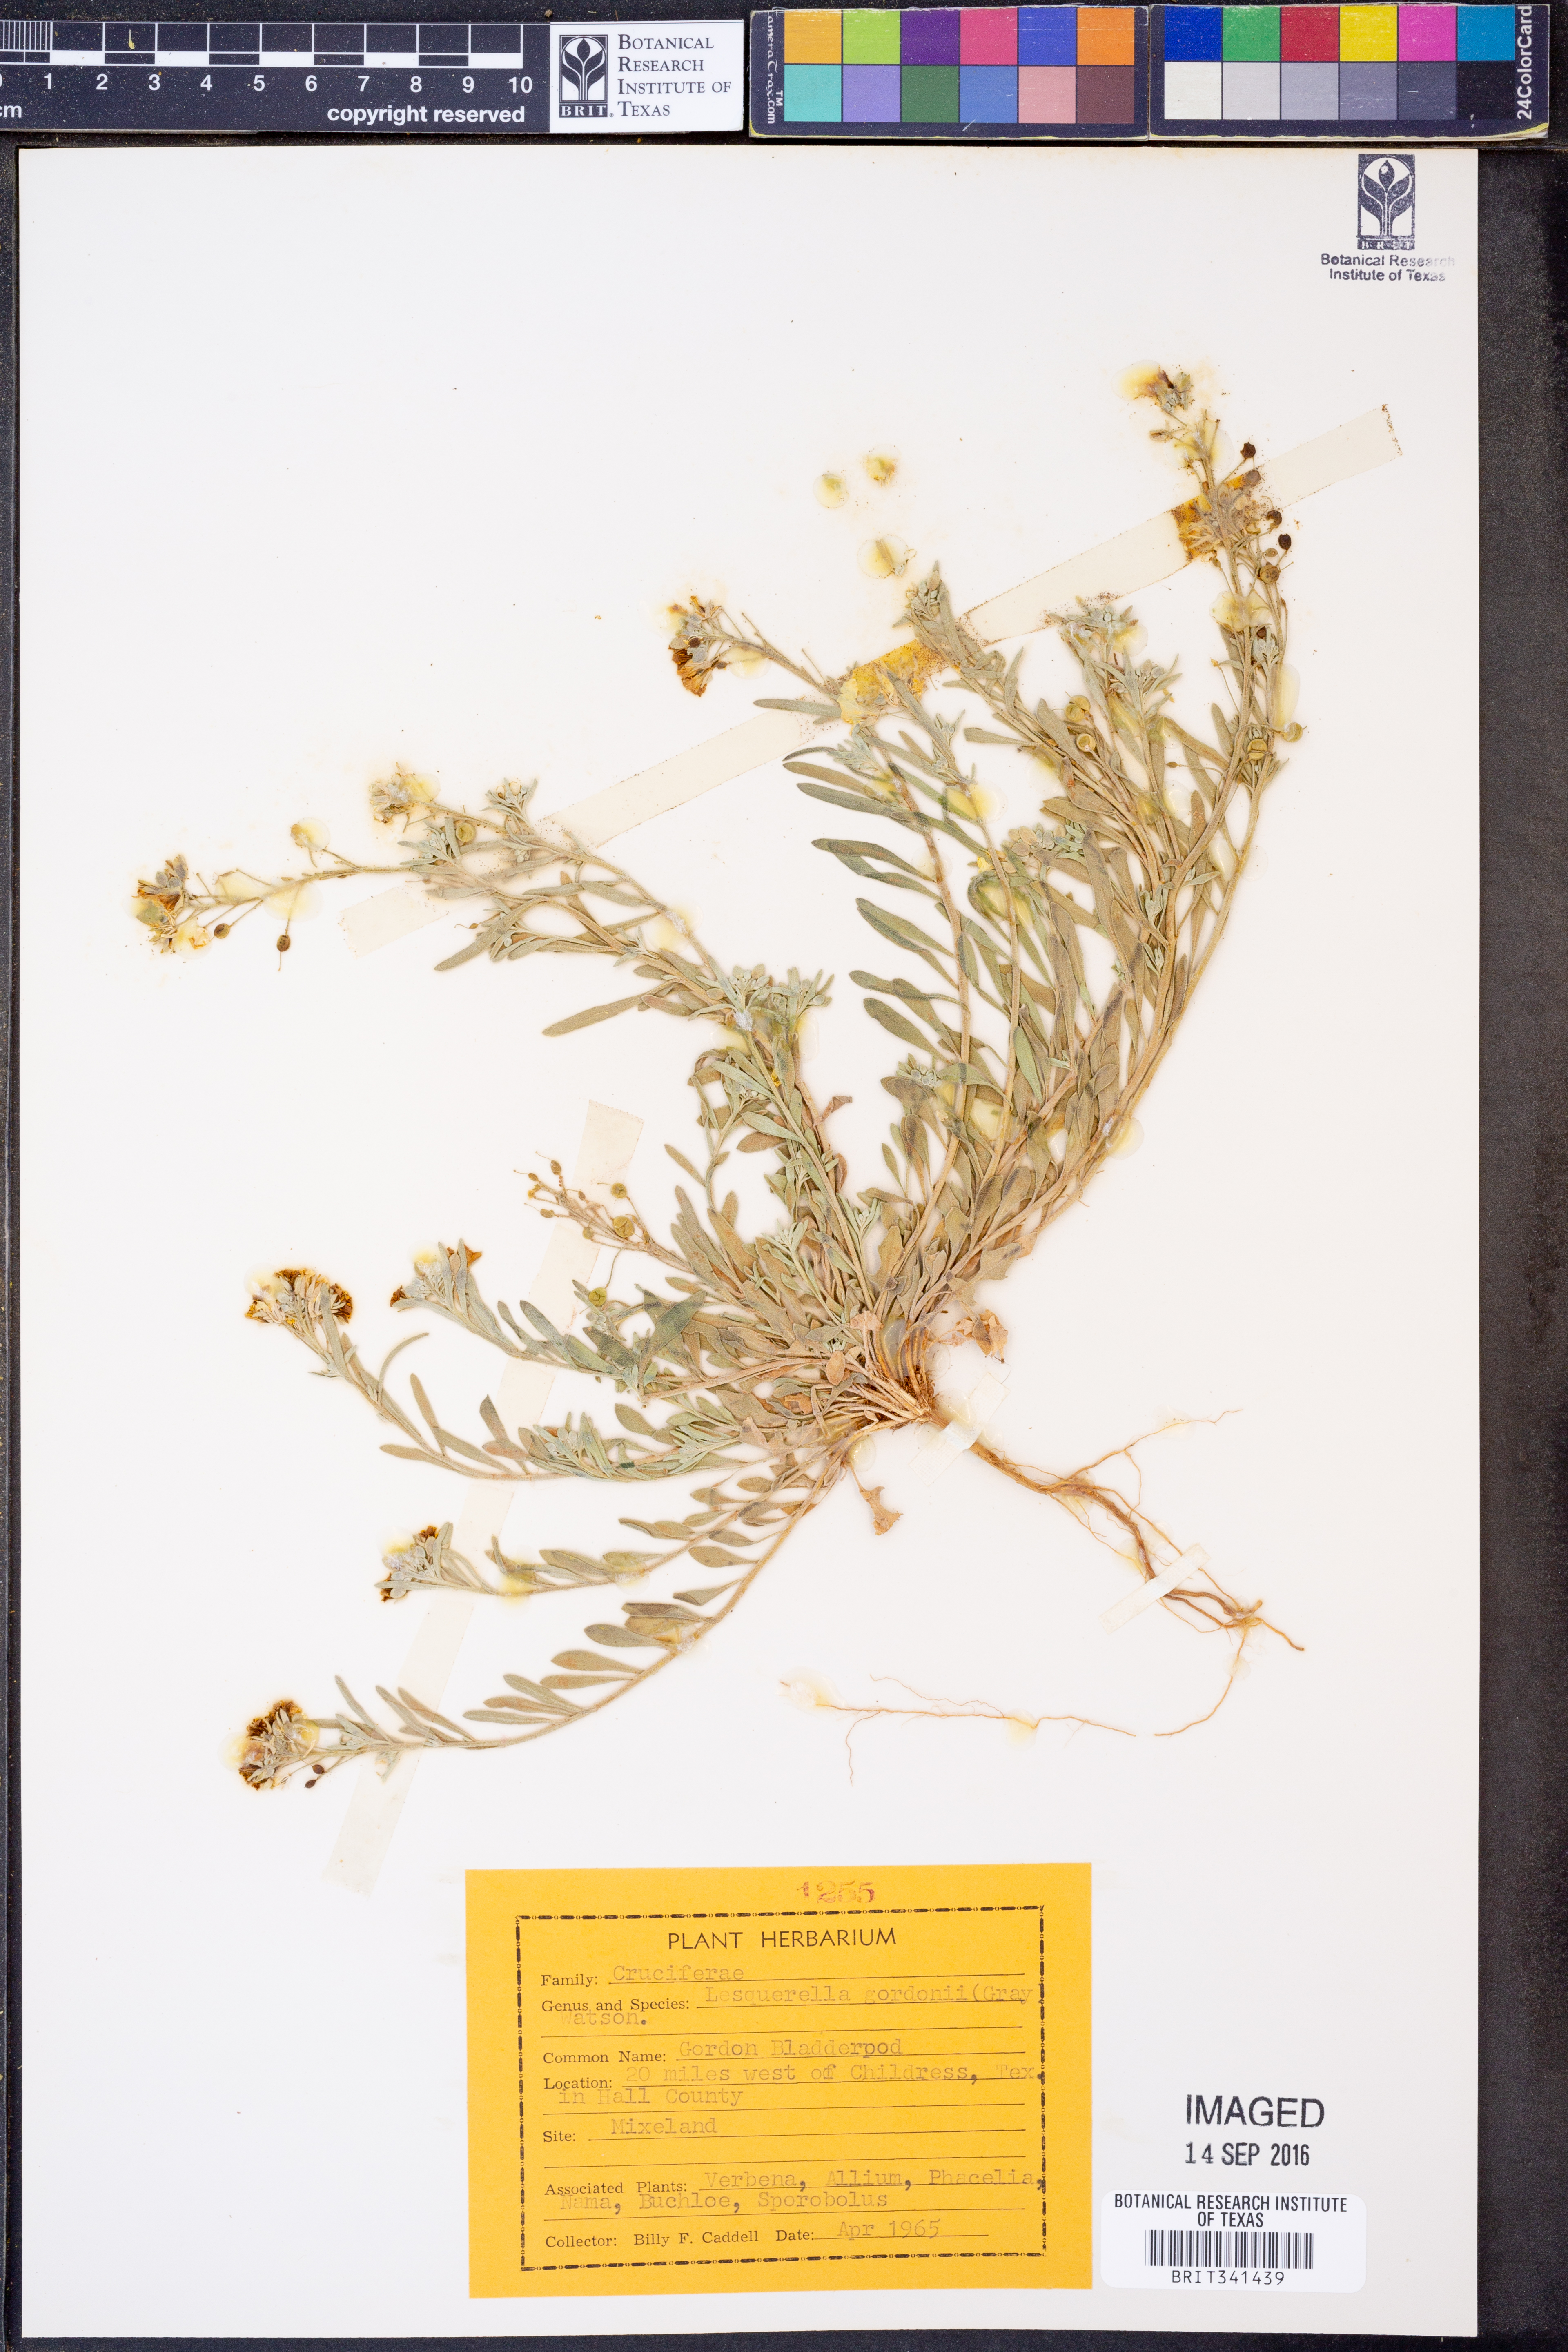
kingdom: Plantae
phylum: Tracheophyta
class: Magnoliopsida
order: Brassicales
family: Brassicaceae
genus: Physaria
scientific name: Physaria gordonii
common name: Gordon's bladderpod
